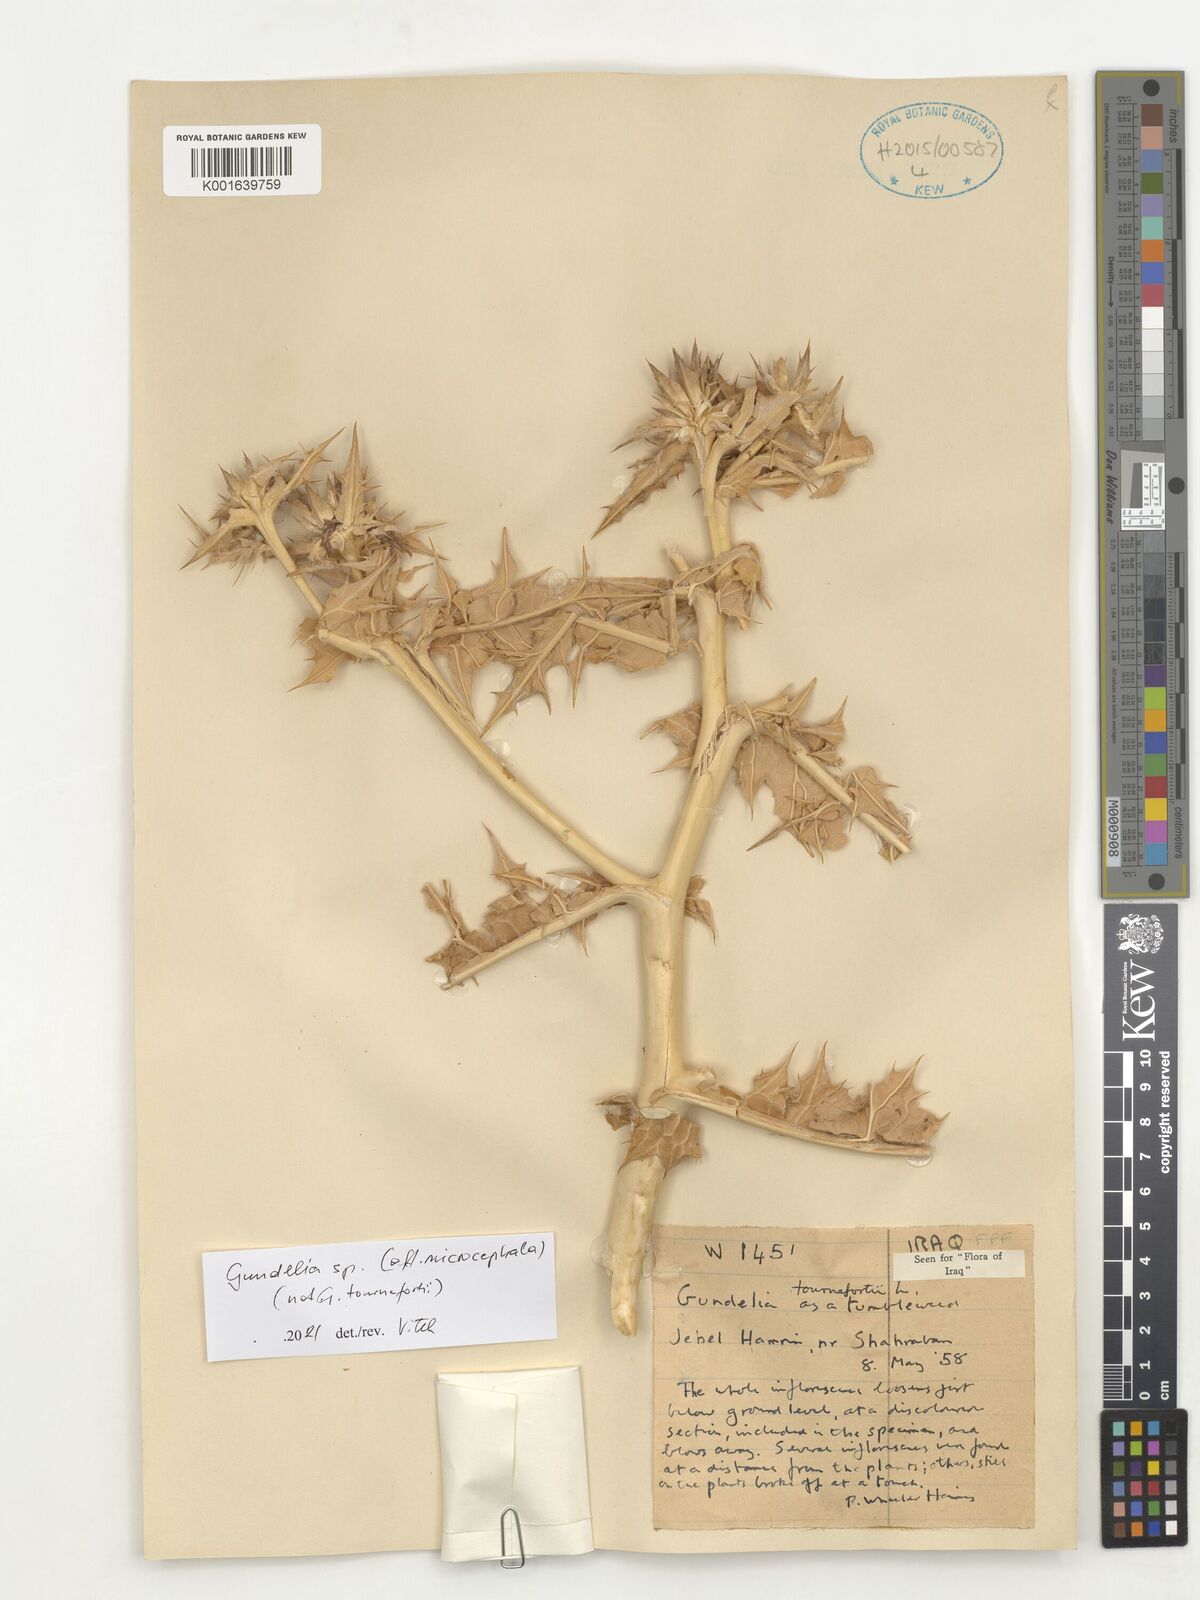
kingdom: Plantae
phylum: Tracheophyta
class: Magnoliopsida
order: Asterales
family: Asteraceae
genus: Gundelia
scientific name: Gundelia microcephala
